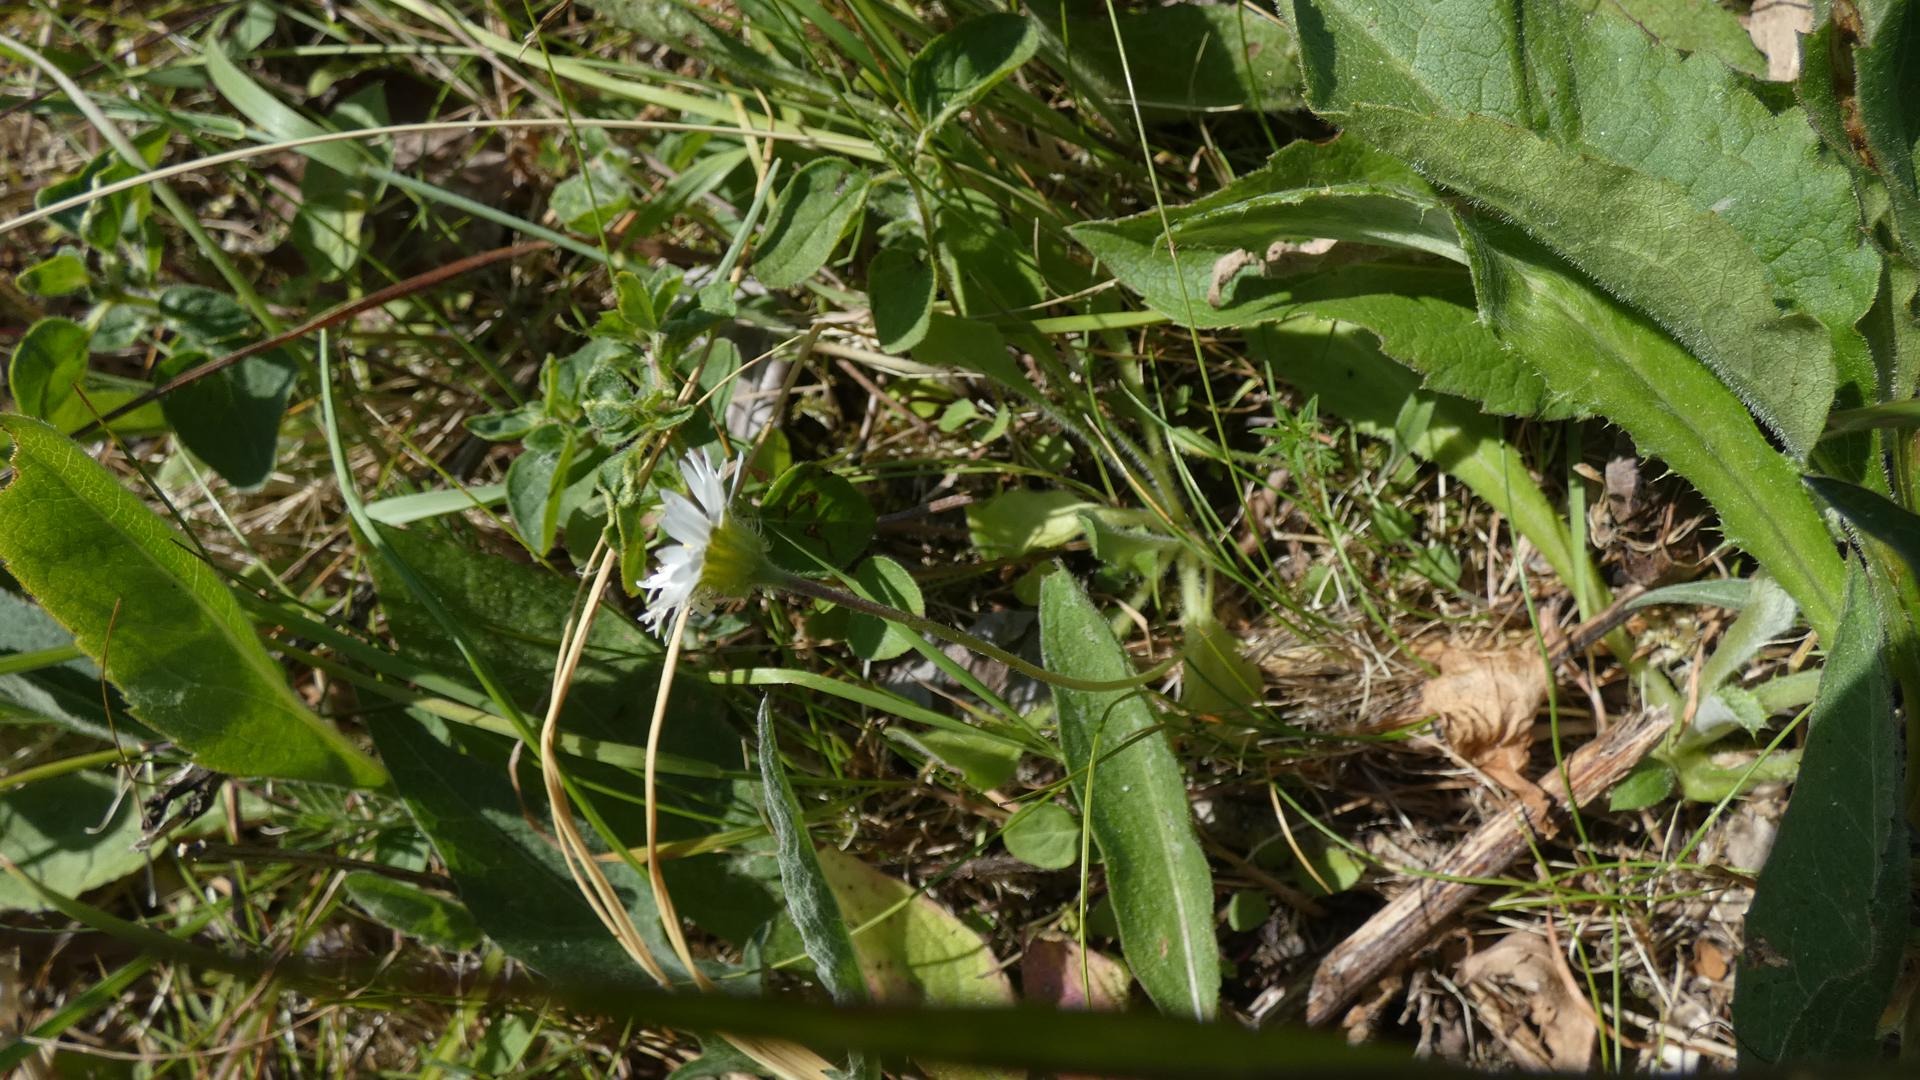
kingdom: Plantae
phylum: Tracheophyta
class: Magnoliopsida
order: Asterales
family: Asteraceae
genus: Bellis
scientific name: Bellis perennis
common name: Tusindfryd
